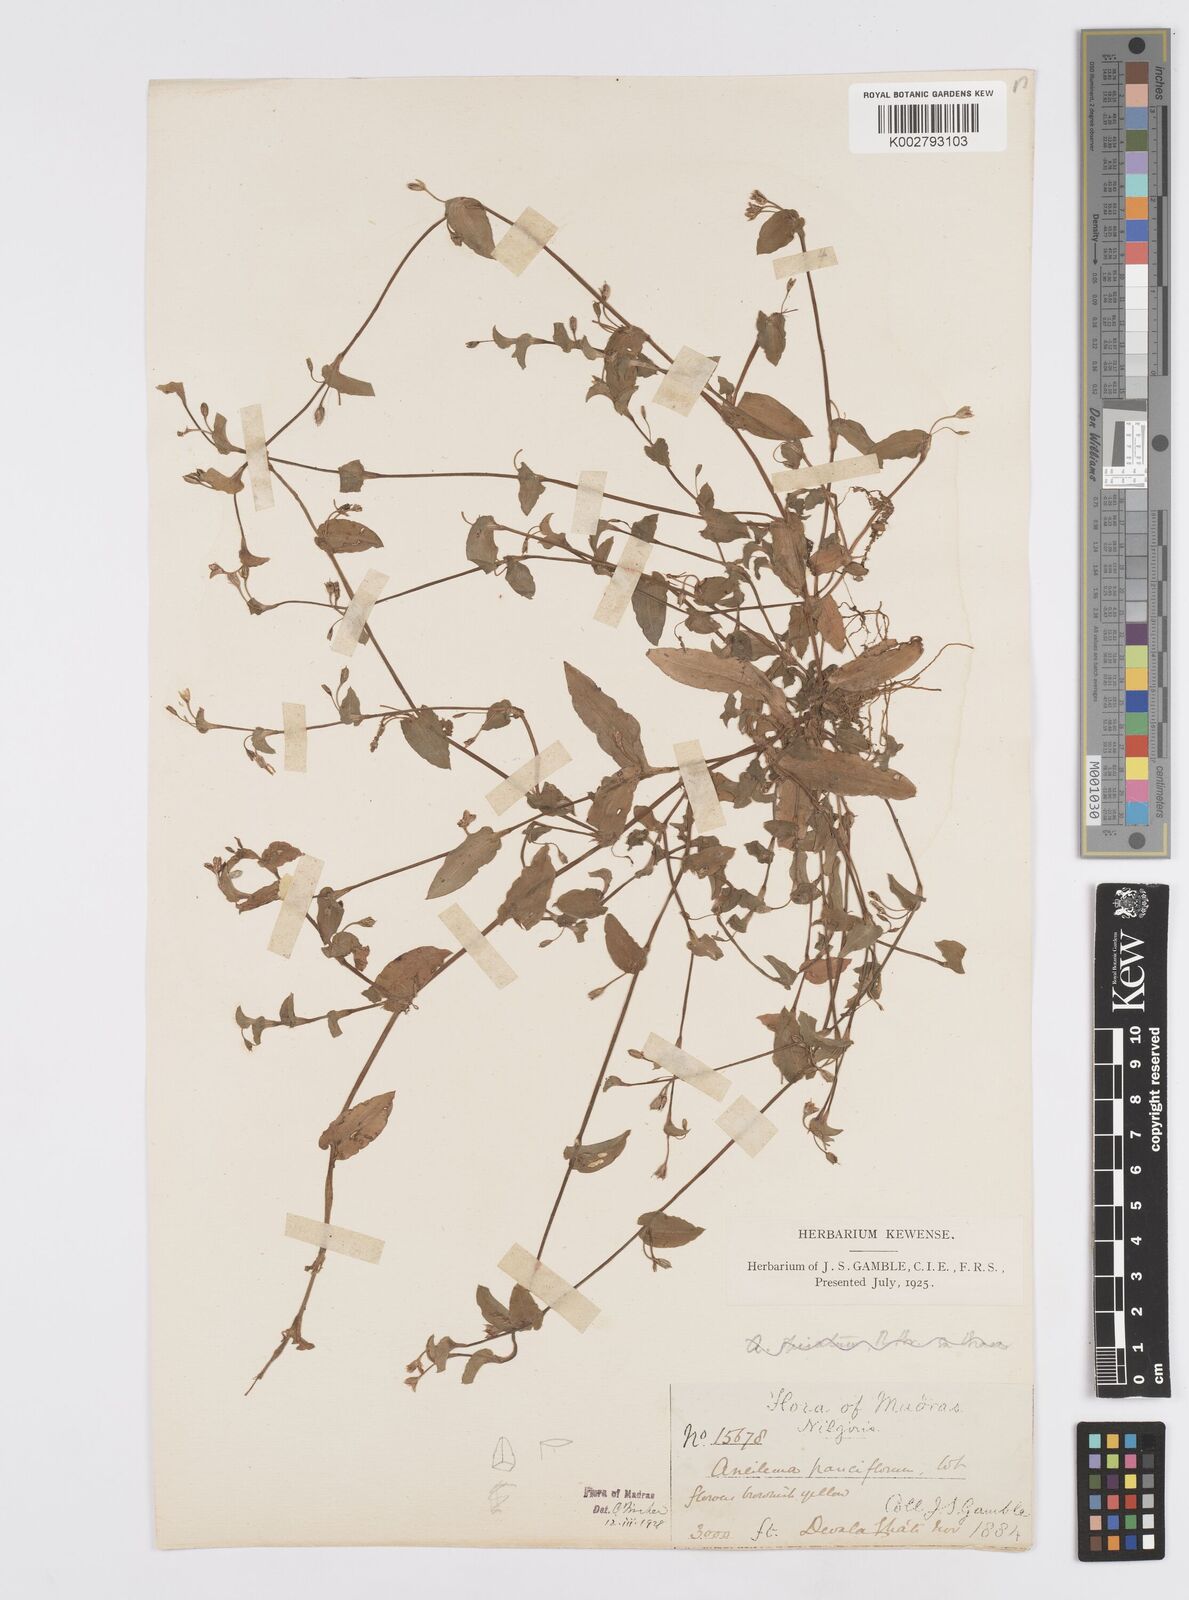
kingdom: Plantae
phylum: Tracheophyta
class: Liliopsida
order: Commelinales
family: Commelinaceae
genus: Murdannia
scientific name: Murdannia pauciflora
